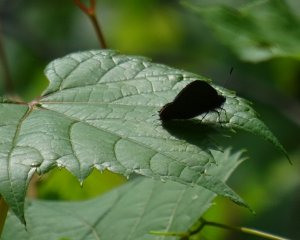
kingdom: Animalia
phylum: Arthropoda
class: Insecta
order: Lepidoptera
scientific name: Lepidoptera
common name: Butterflies
